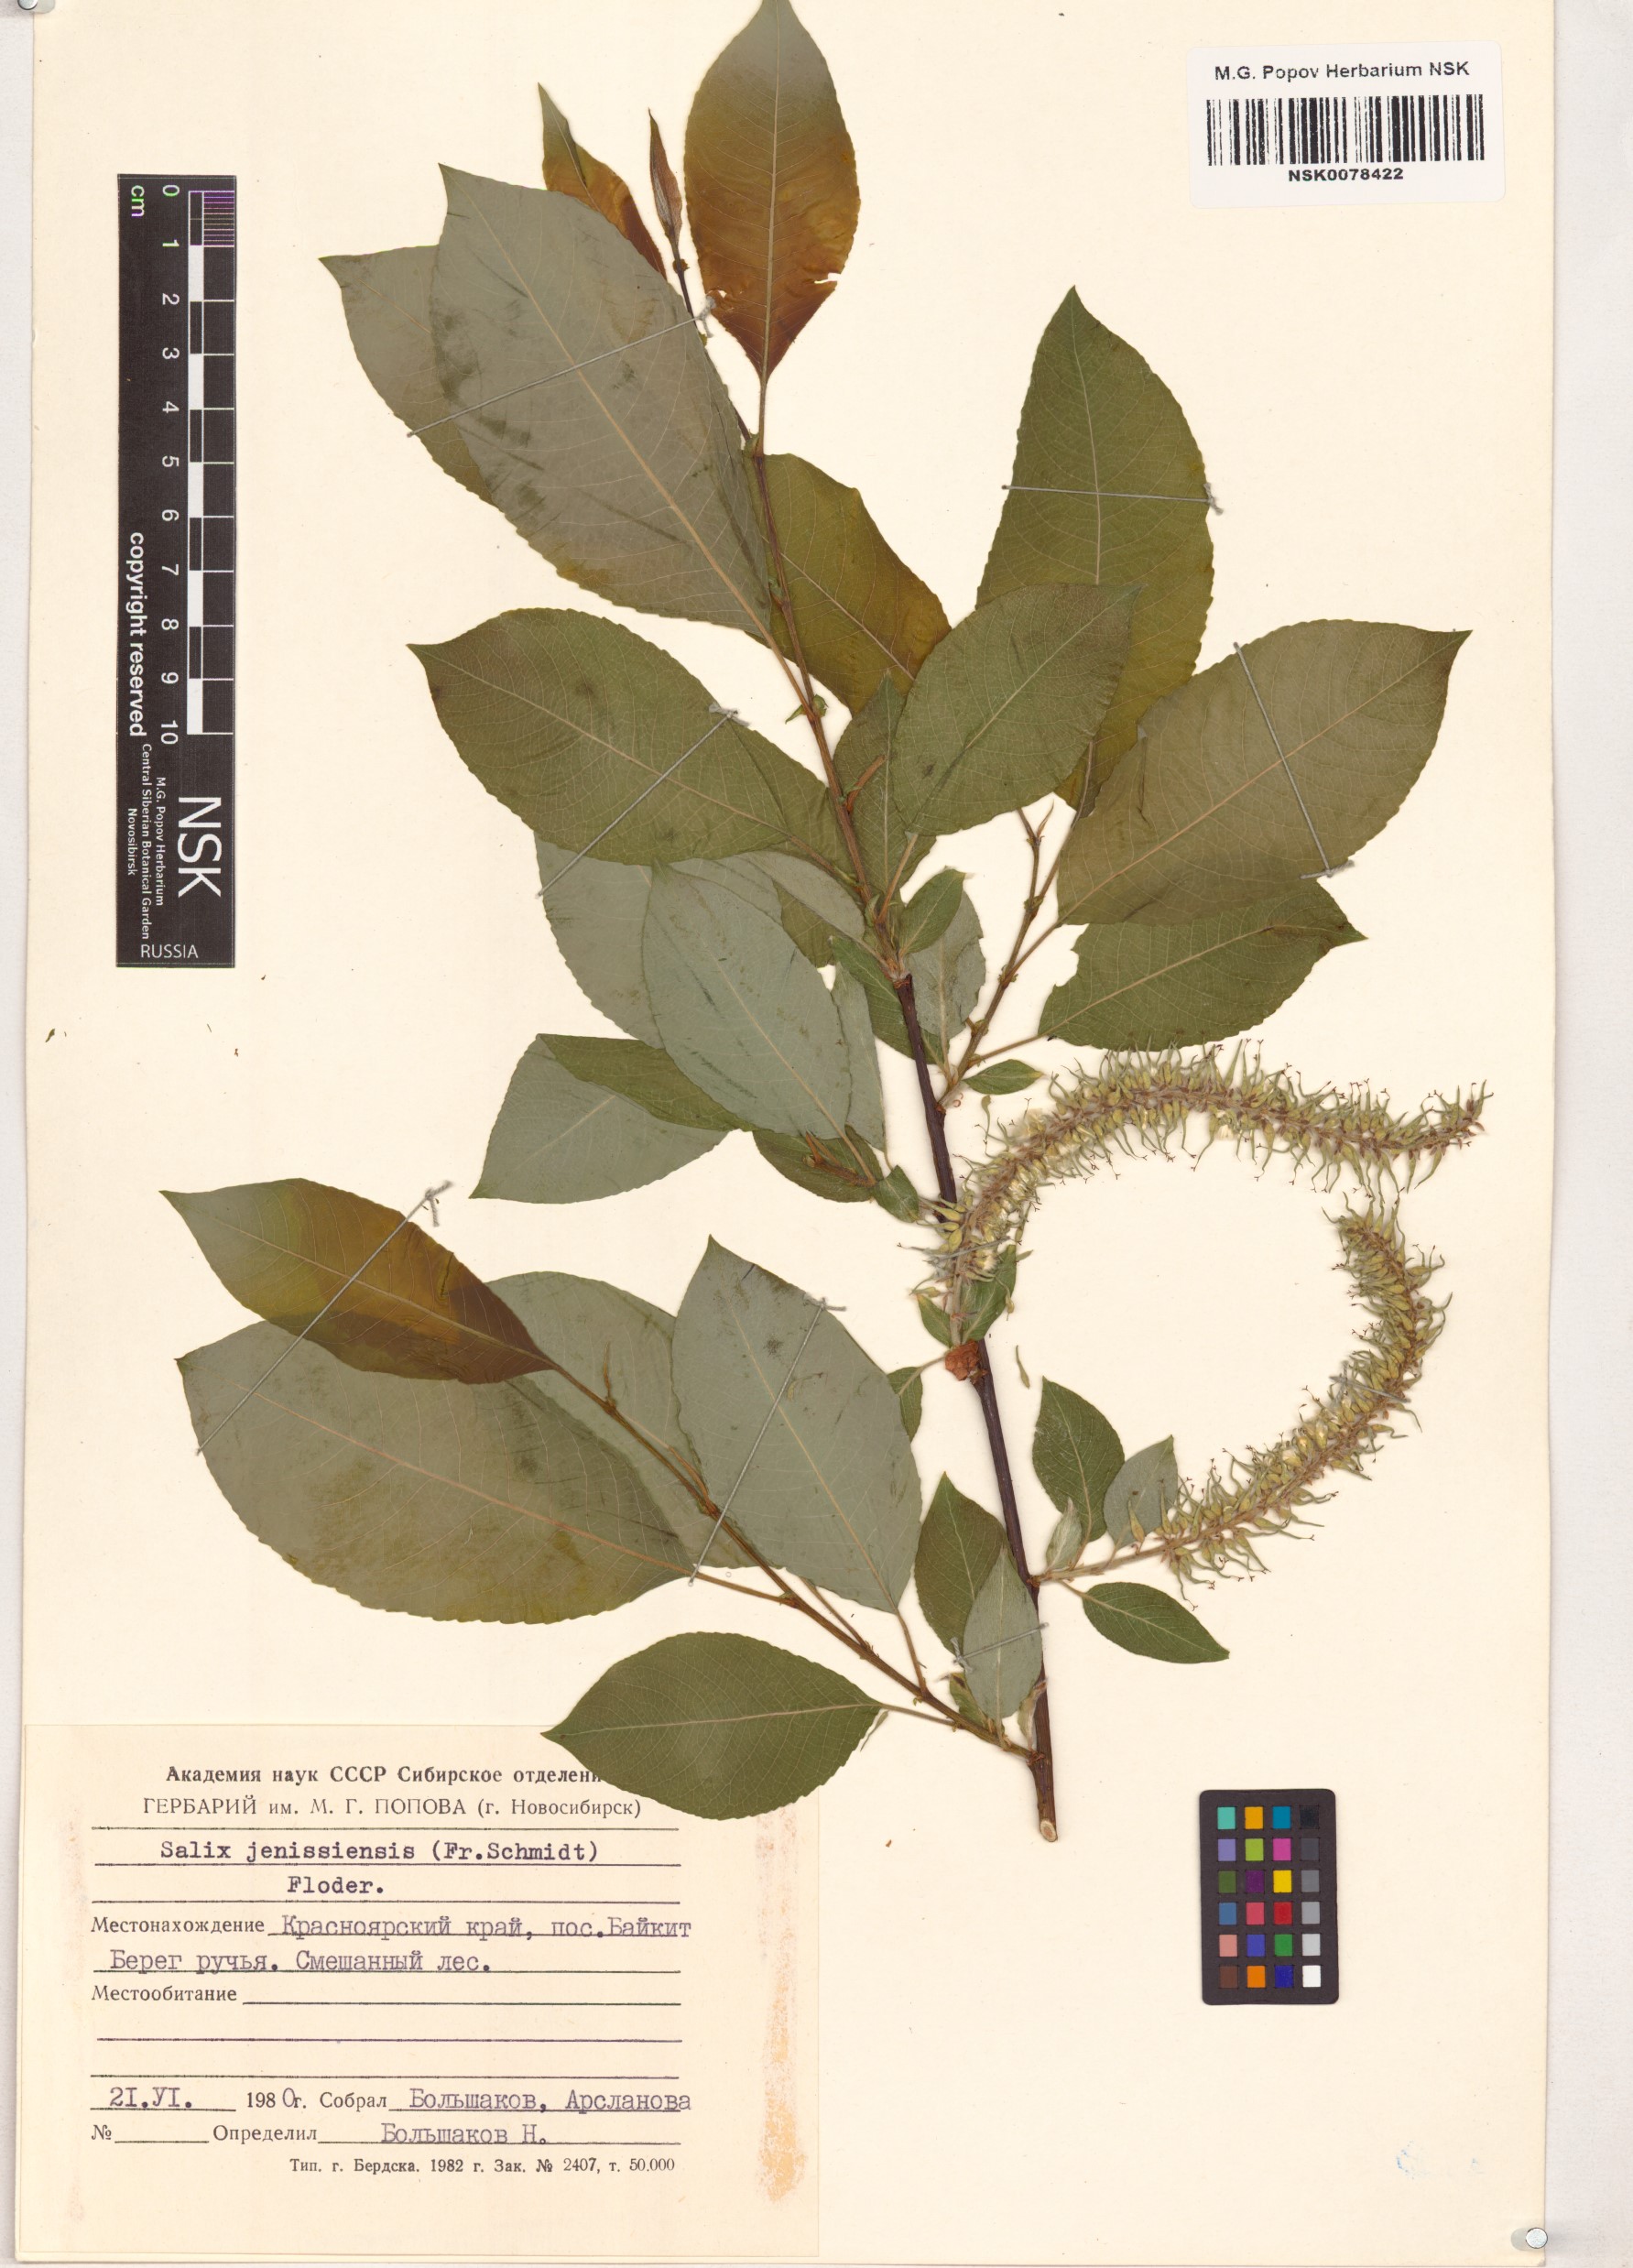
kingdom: Plantae
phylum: Tracheophyta
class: Magnoliopsida
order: Malpighiales
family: Salicaceae
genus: Salix
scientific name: Salix jenisseensis
